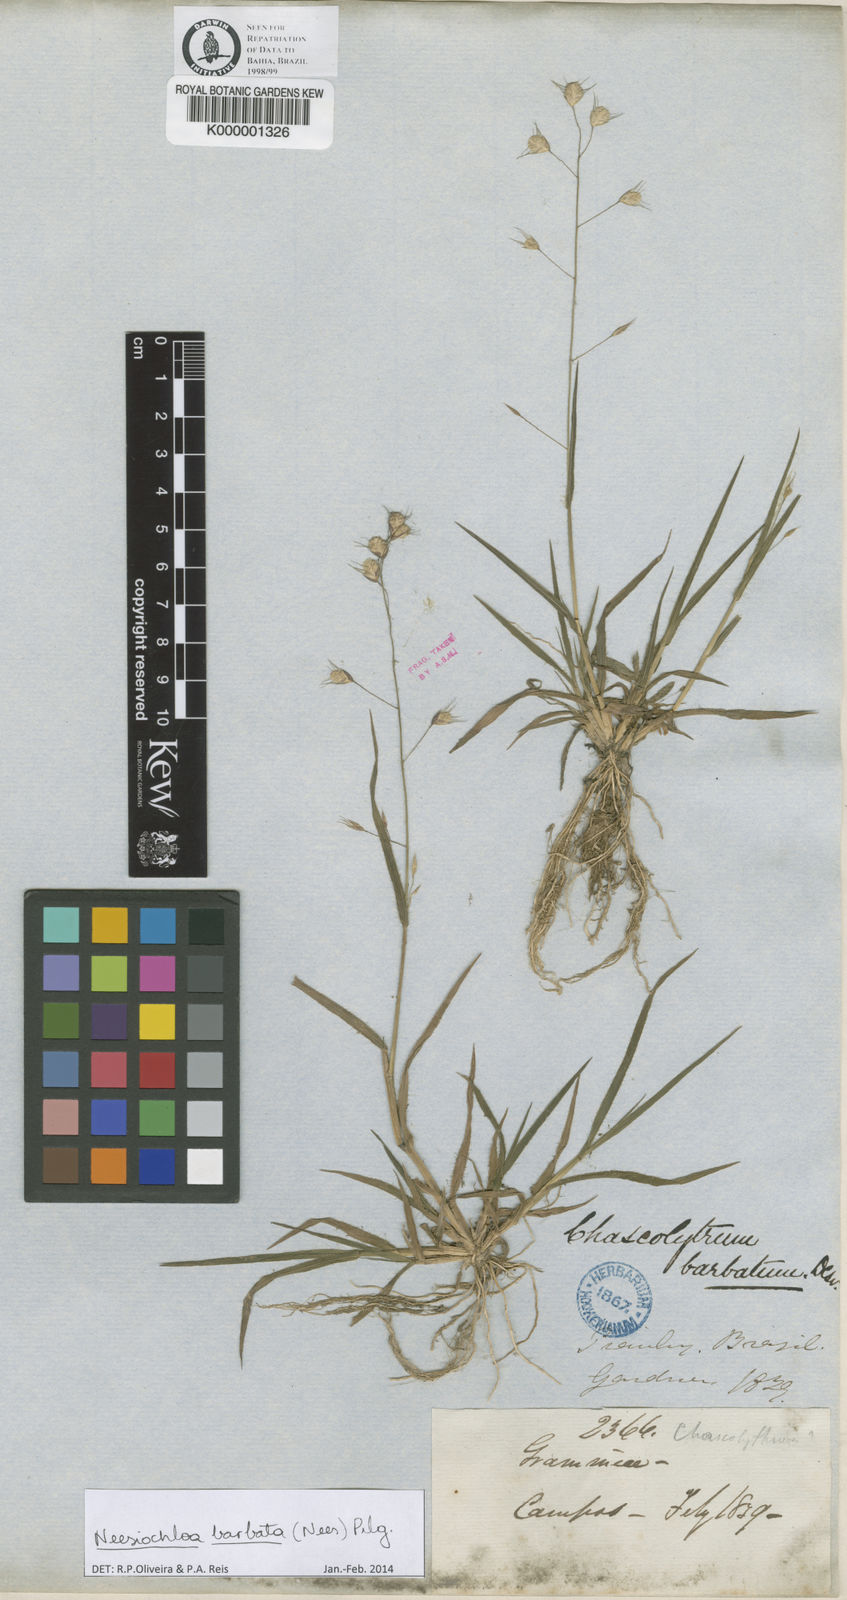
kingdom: Plantae
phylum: Tracheophyta
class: Liliopsida
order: Poales
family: Poaceae
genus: Neesiochloa
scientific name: Neesiochloa barbata
